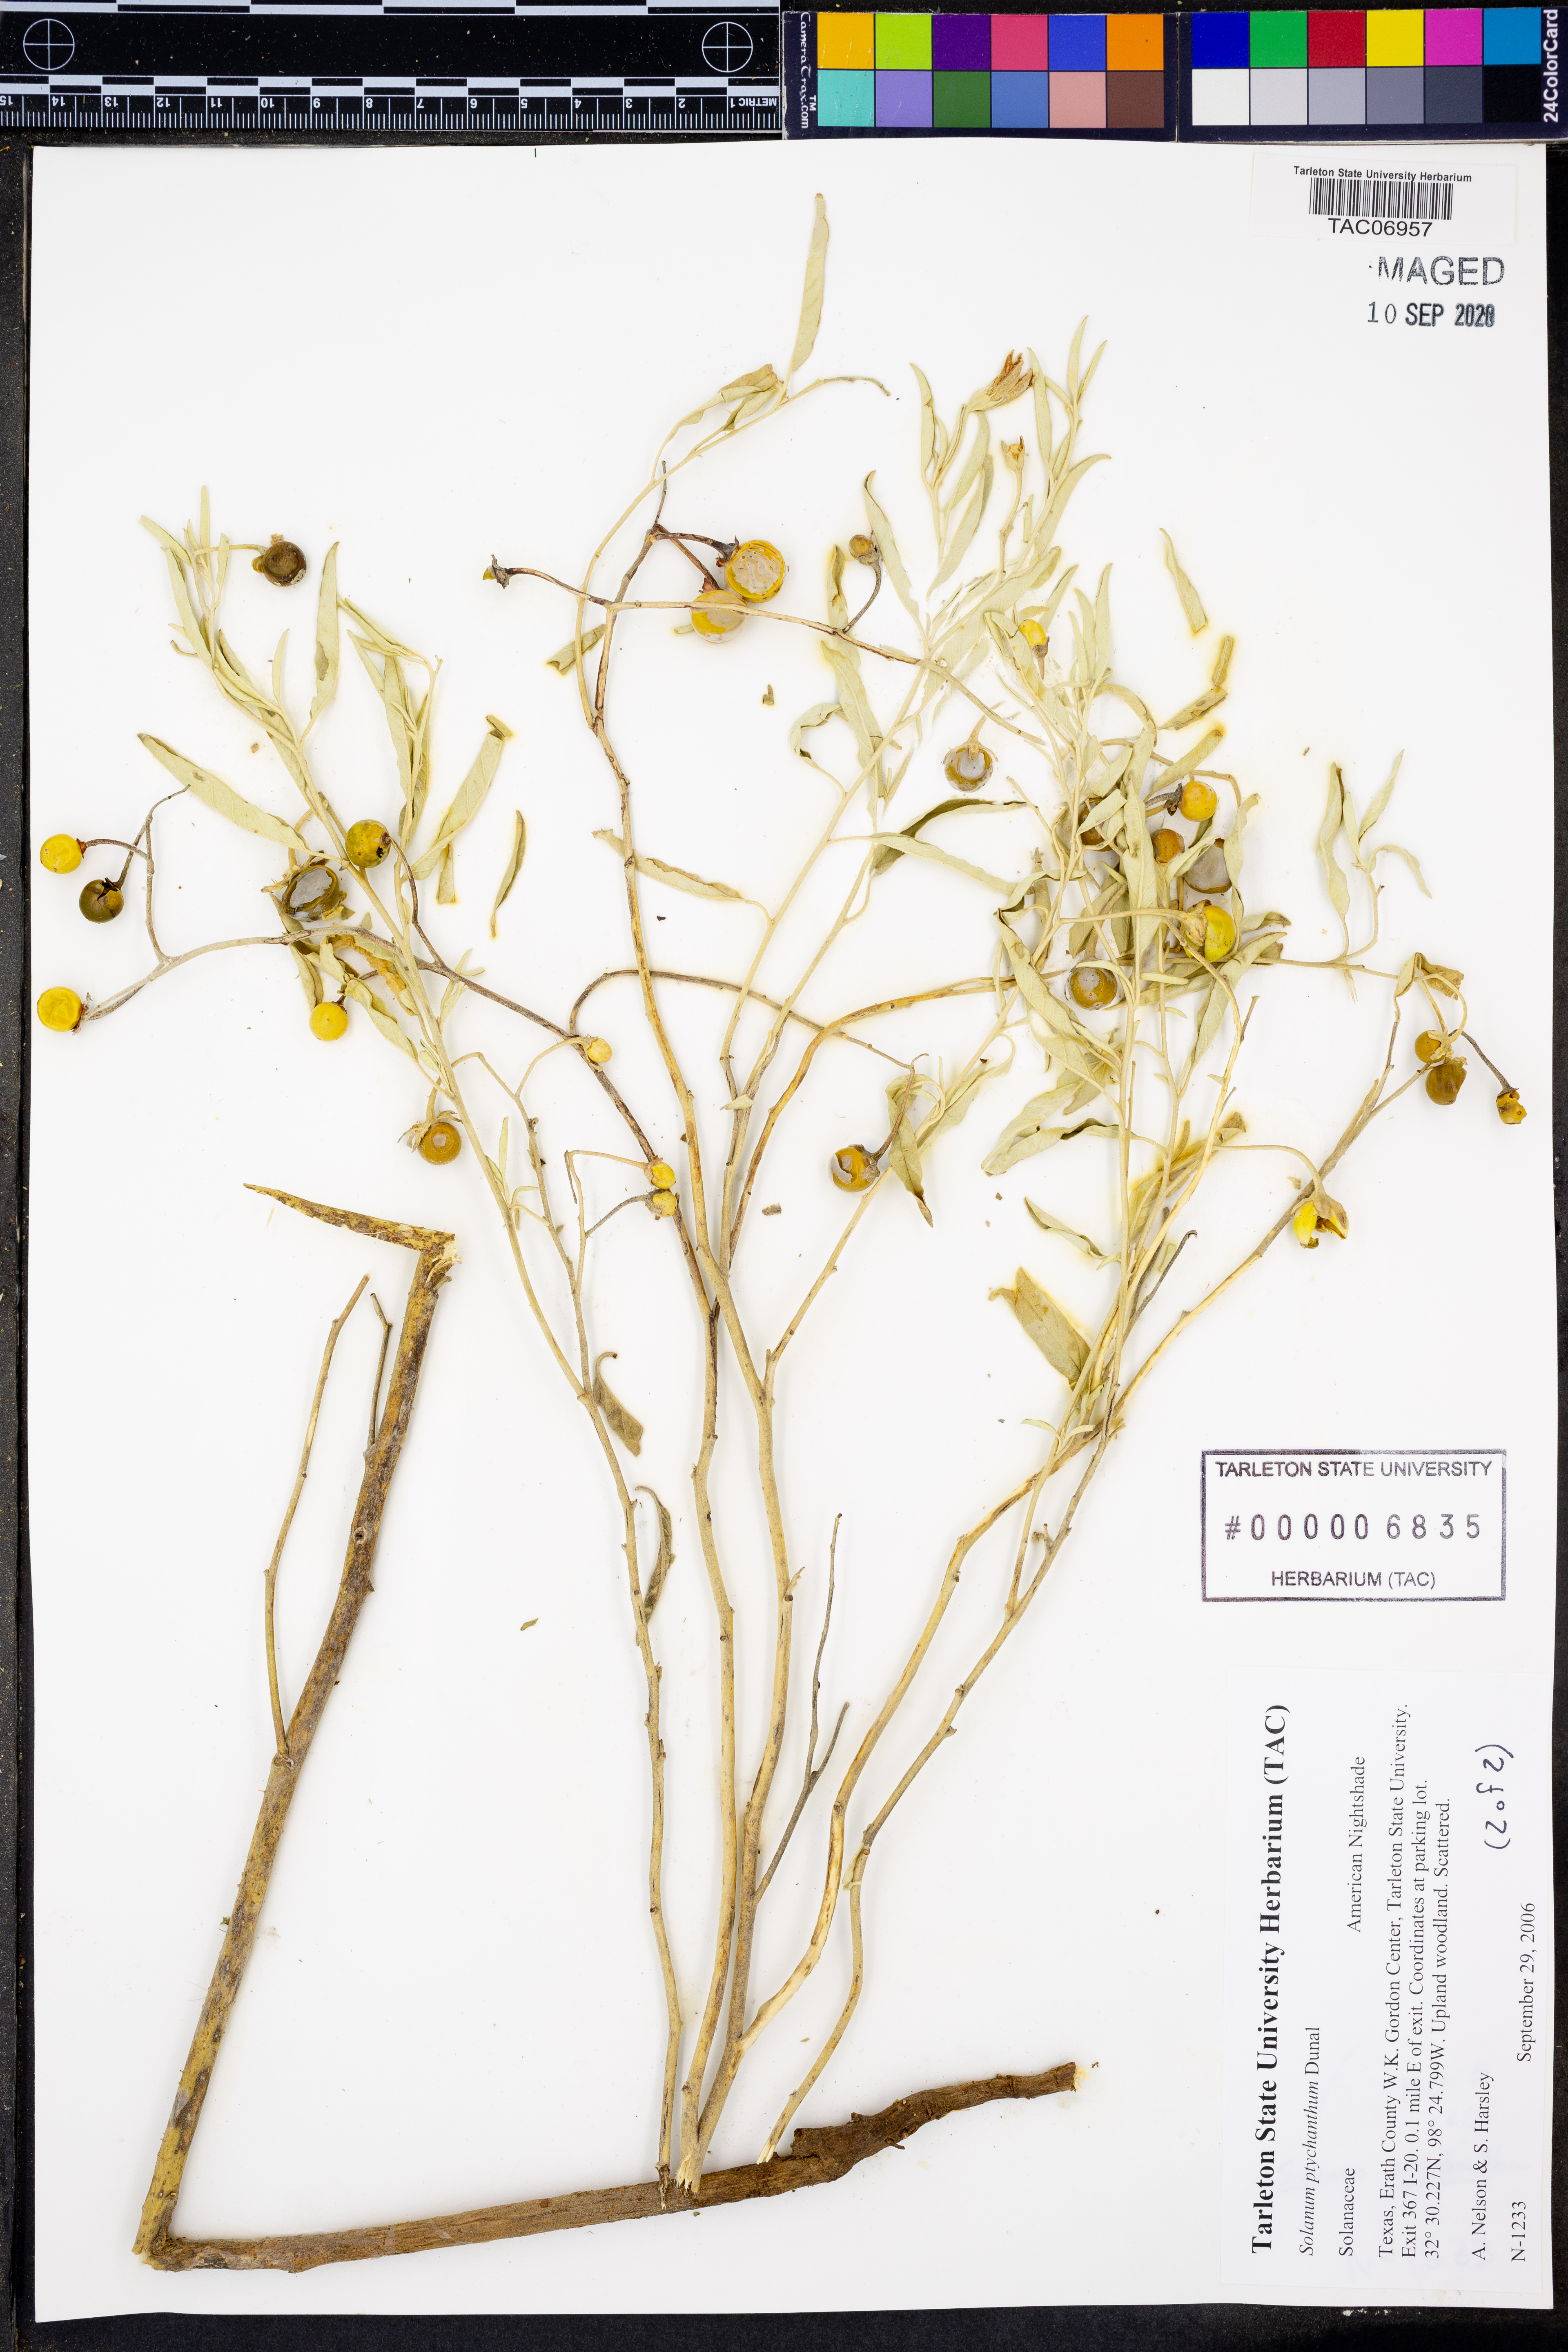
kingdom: Plantae
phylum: Tracheophyta
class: Magnoliopsida
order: Solanales
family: Solanaceae
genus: Solanum
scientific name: Solanum americanum
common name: American black nightshade
